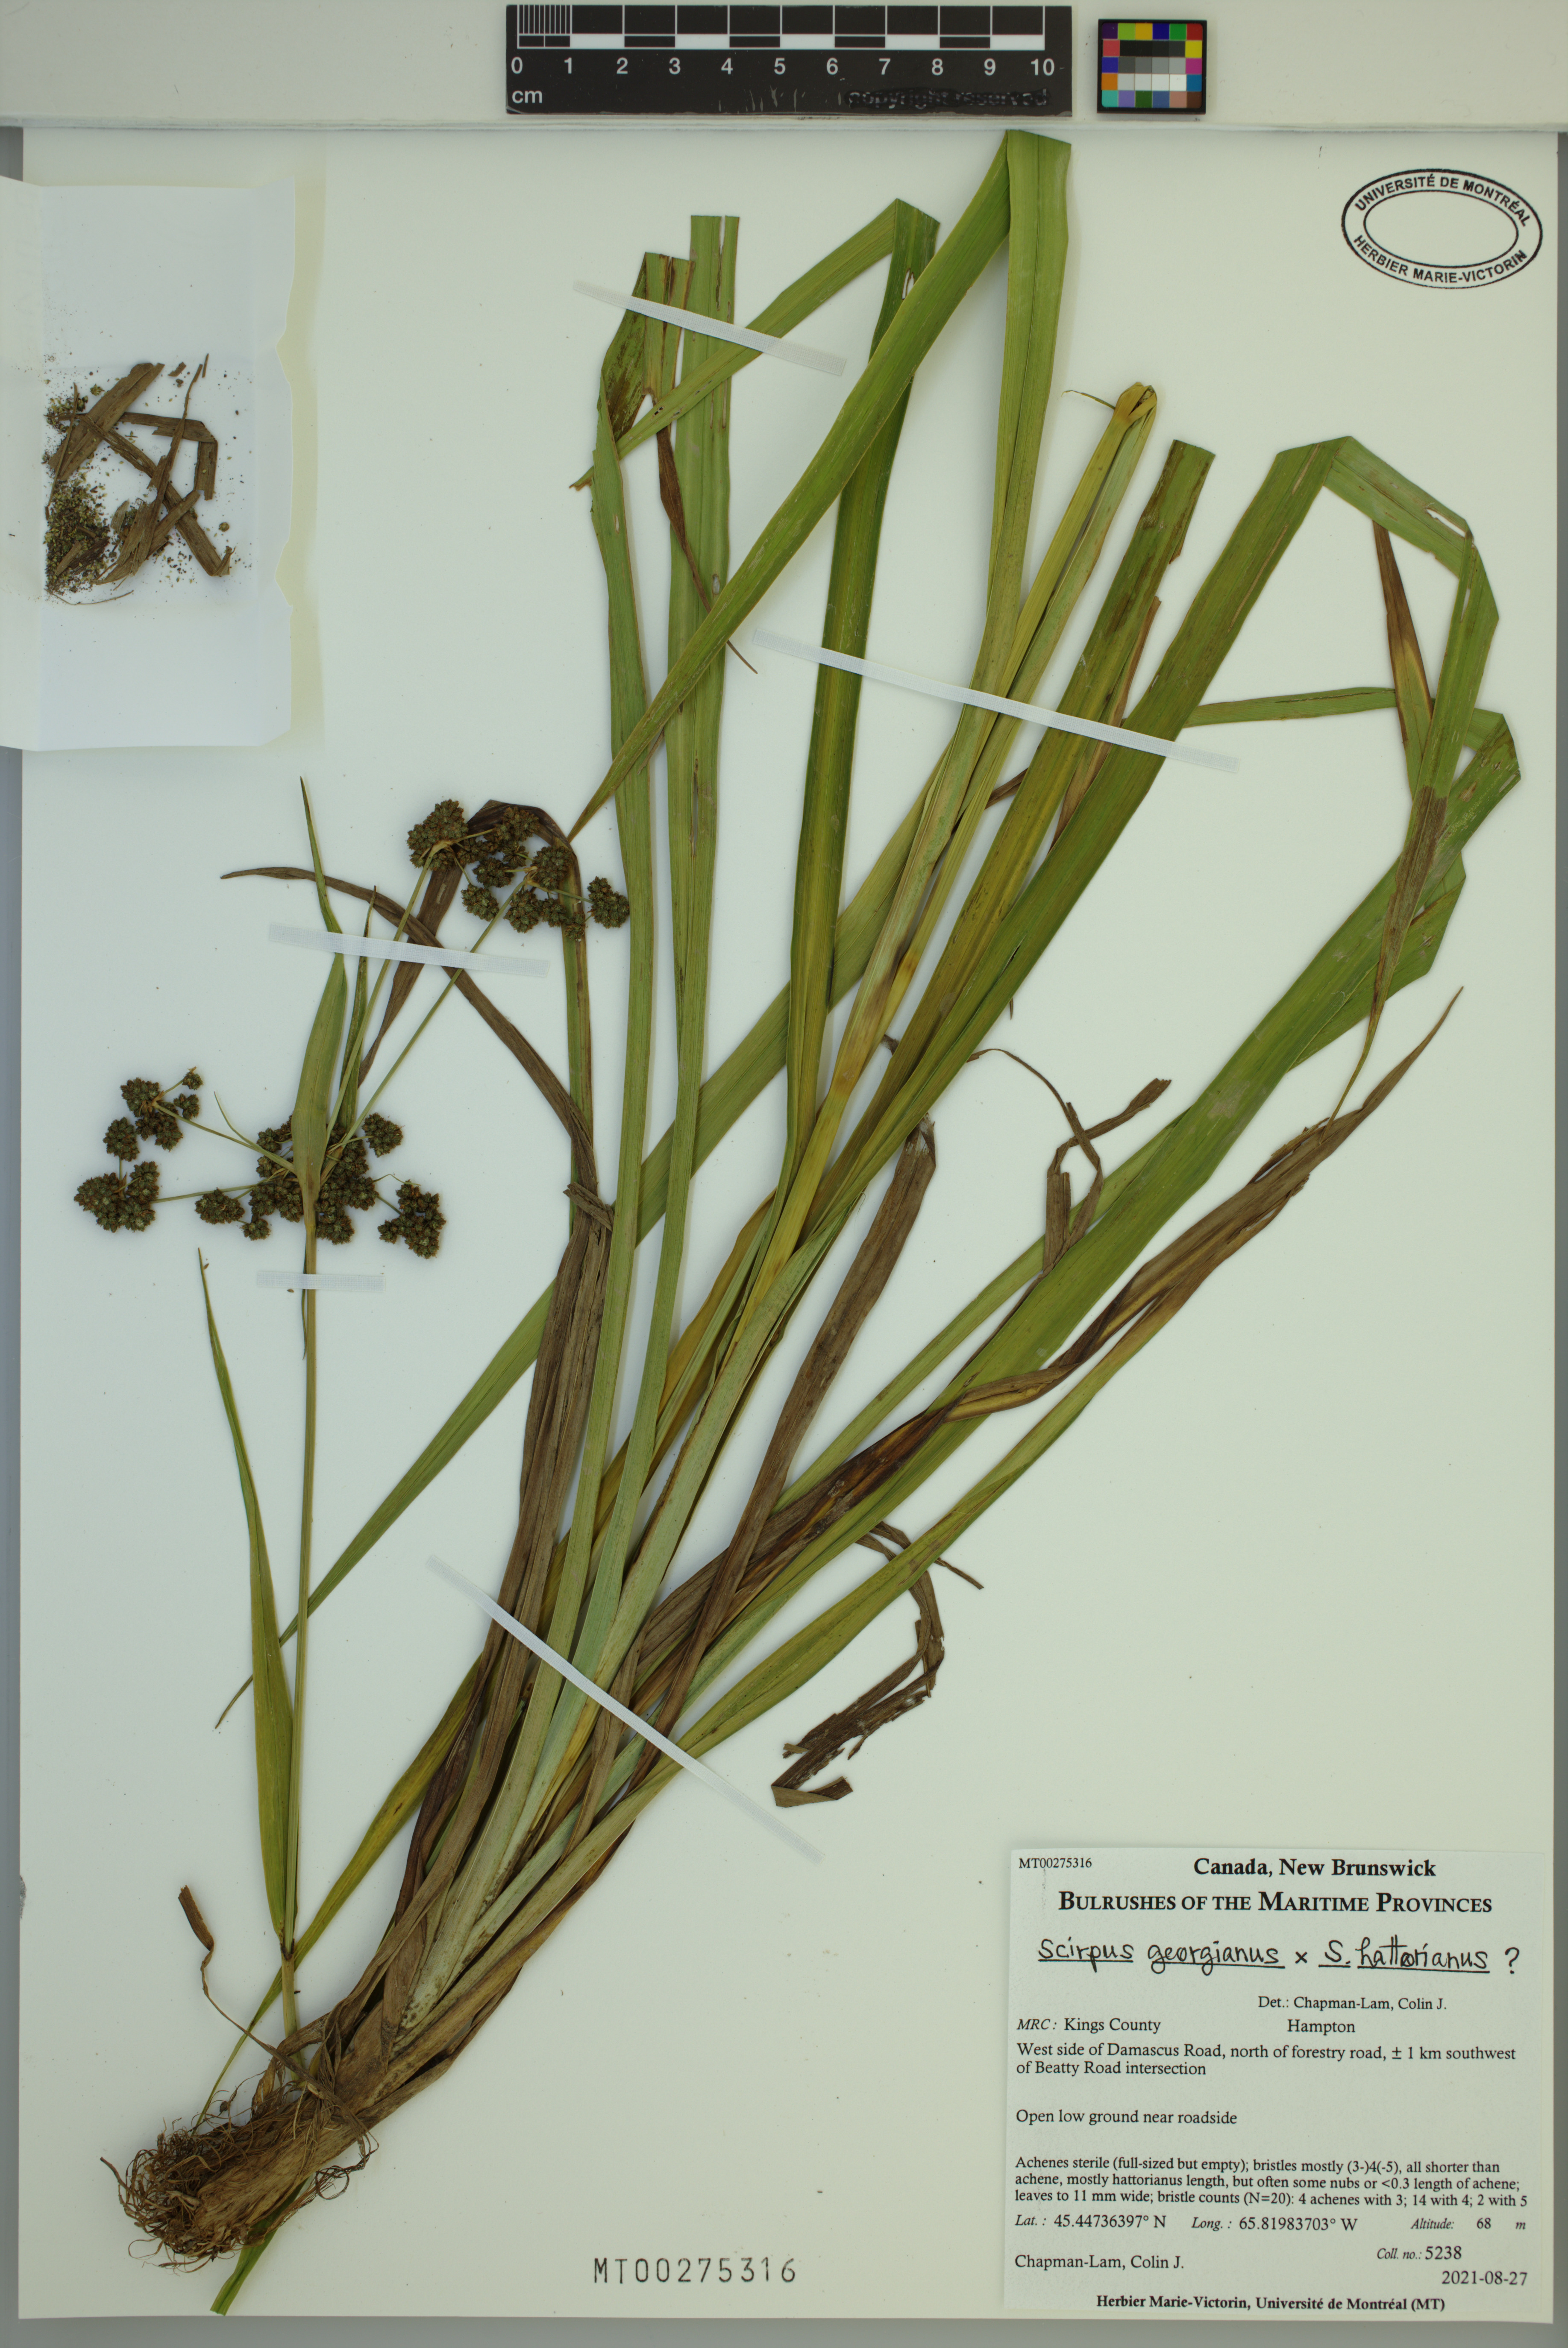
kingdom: Plantae
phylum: Tracheophyta
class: Liliopsida
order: Poales
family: Cyperaceae
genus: Scirpus
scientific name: Scirpus georgianus
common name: Bristleless dark-green bulrush
